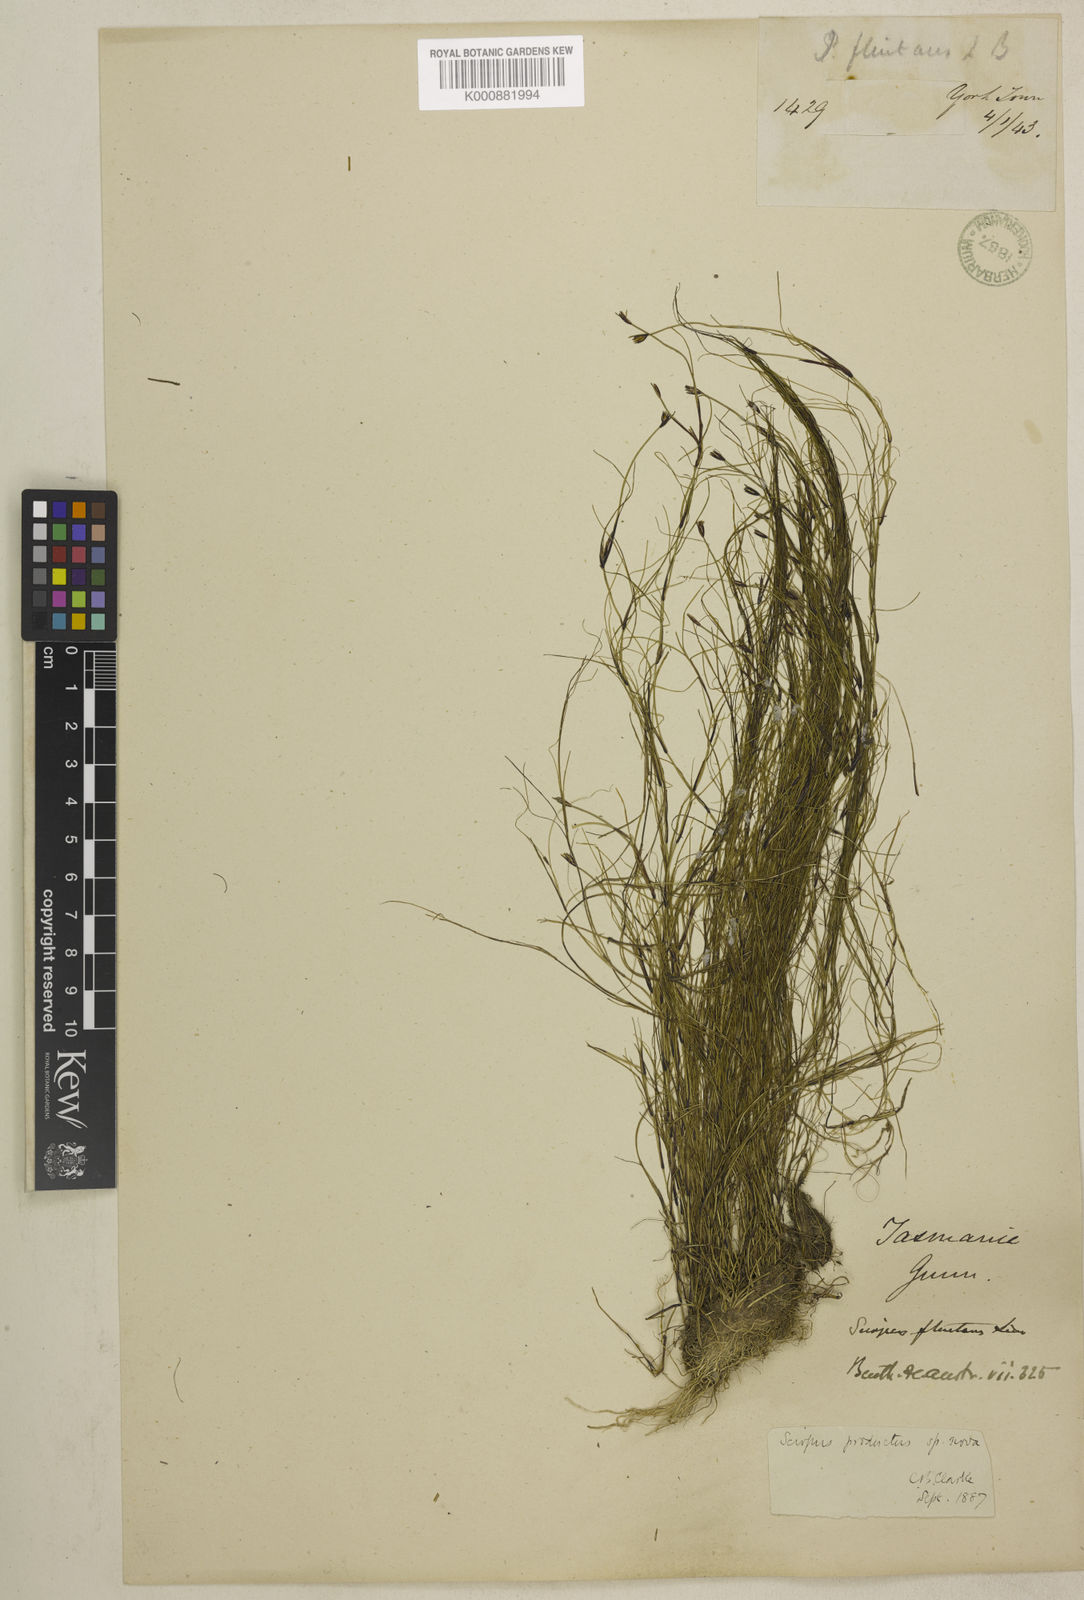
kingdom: Plantae
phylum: Tracheophyta
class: Liliopsida
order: Poales
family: Cyperaceae
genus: Isolepis
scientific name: Isolepis producta
